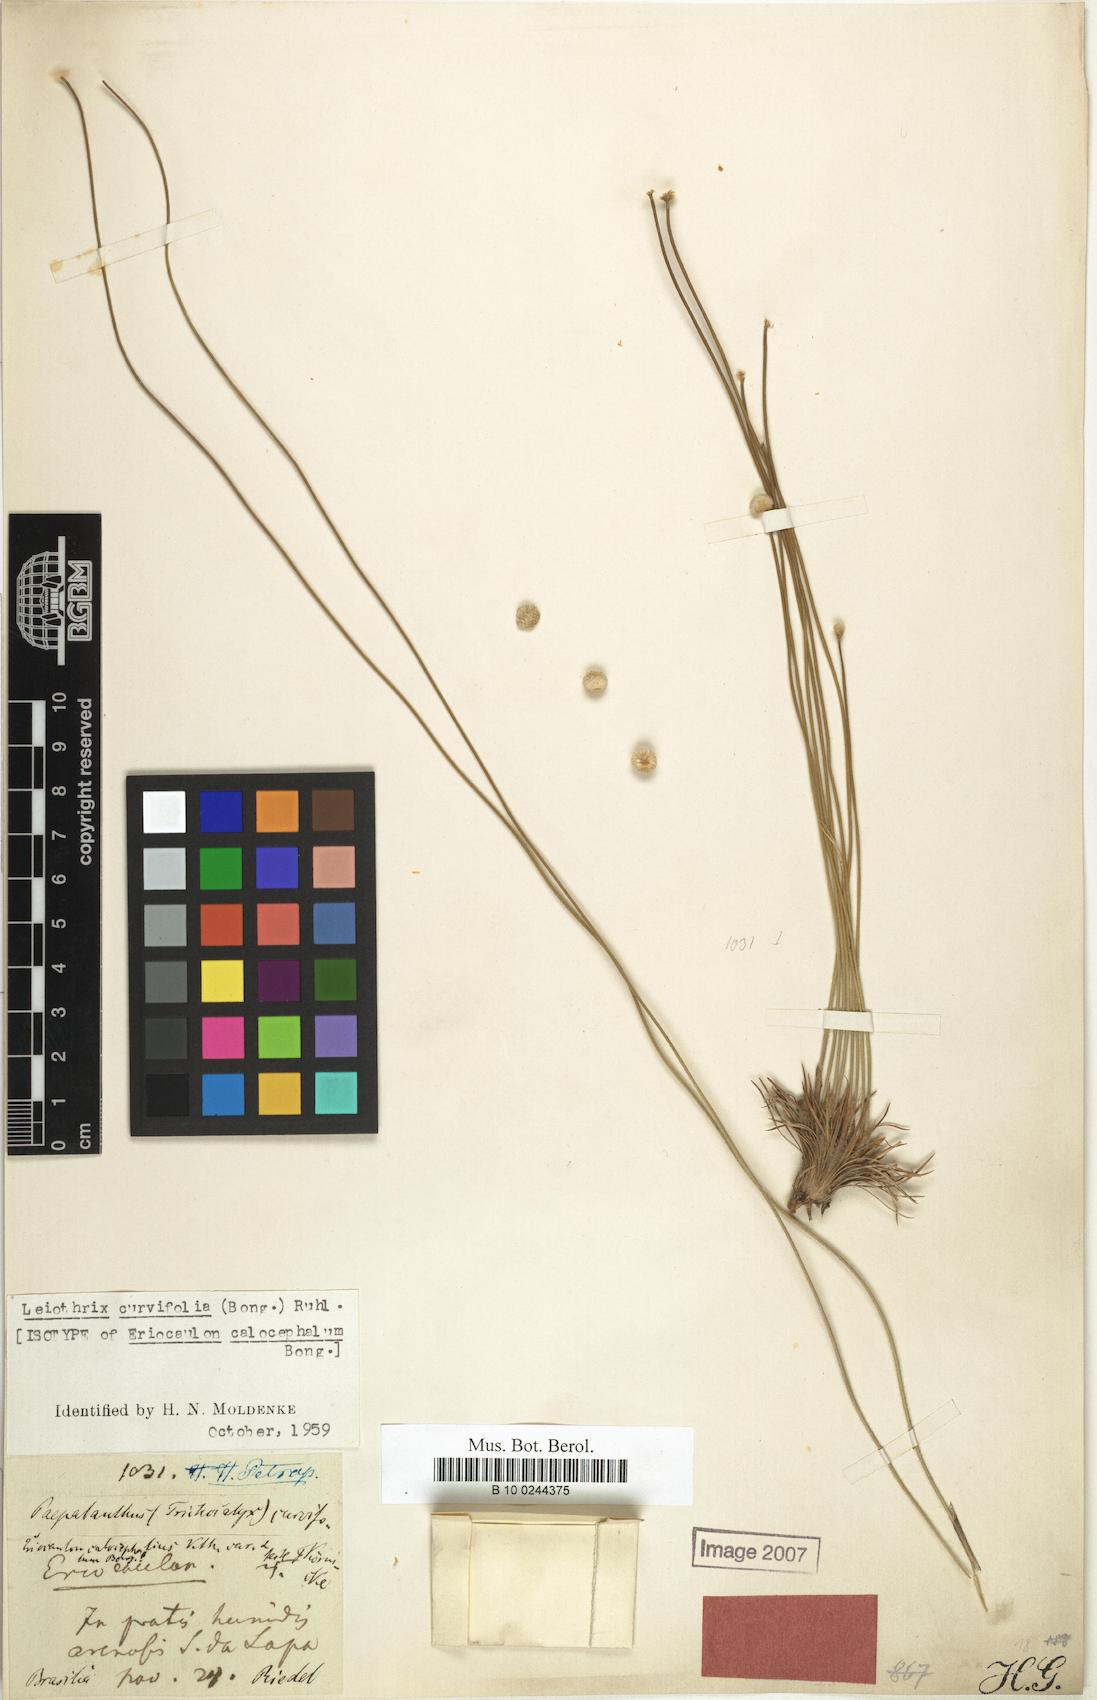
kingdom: Plantae
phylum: Tracheophyta
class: Liliopsida
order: Poales
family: Eriocaulaceae
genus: Leiothrix
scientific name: Leiothrix curvifolia
